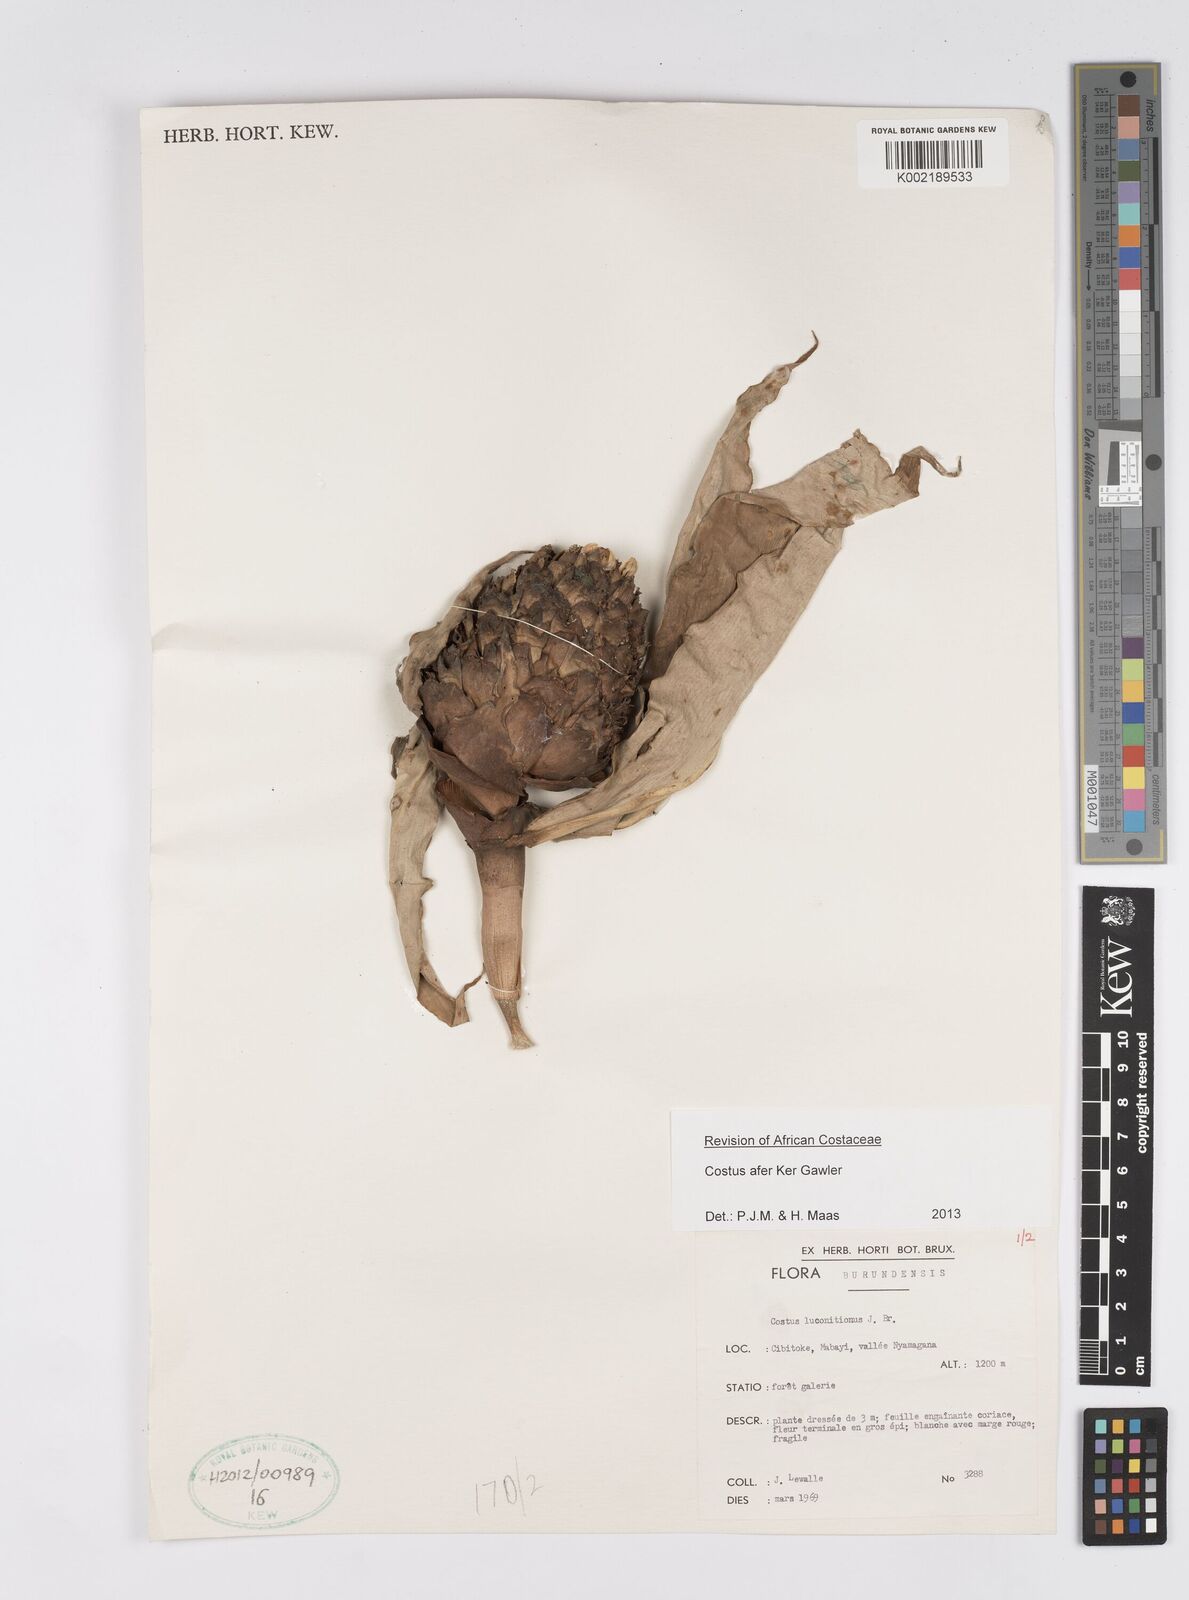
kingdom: Plantae
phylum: Tracheophyta
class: Liliopsida
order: Zingiberales
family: Costaceae
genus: Costus
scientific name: Costus afer
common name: Spiral-ginger
